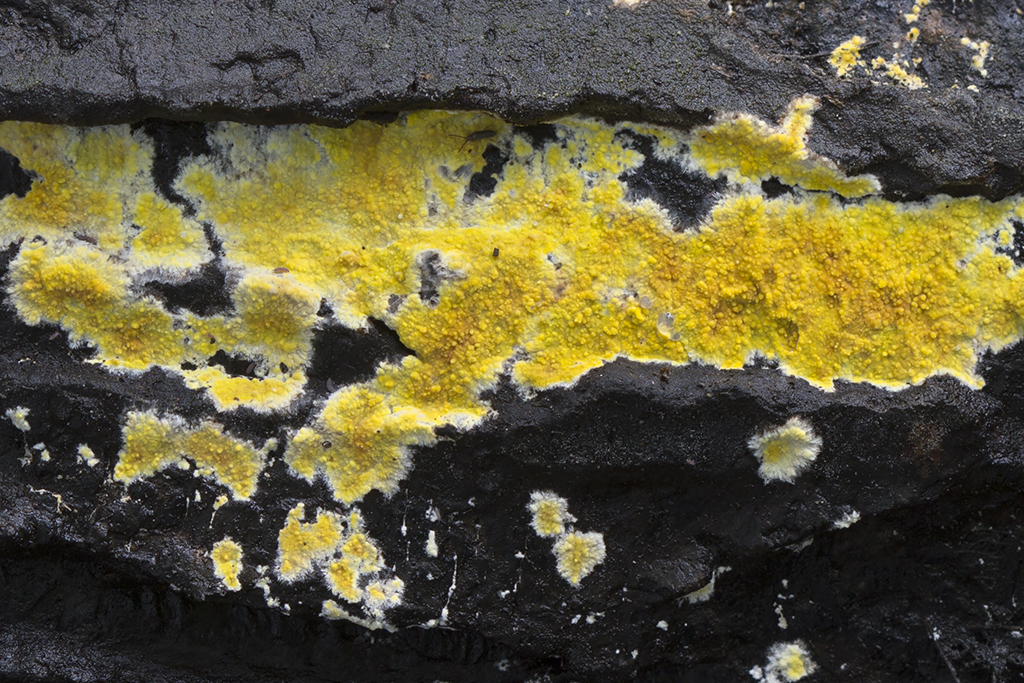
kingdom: Fungi
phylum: Basidiomycota
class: Agaricomycetes
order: Polyporales
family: Meruliaceae
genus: Phlebiodontia
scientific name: Phlebiodontia subochracea
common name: svovl-åresvamp
